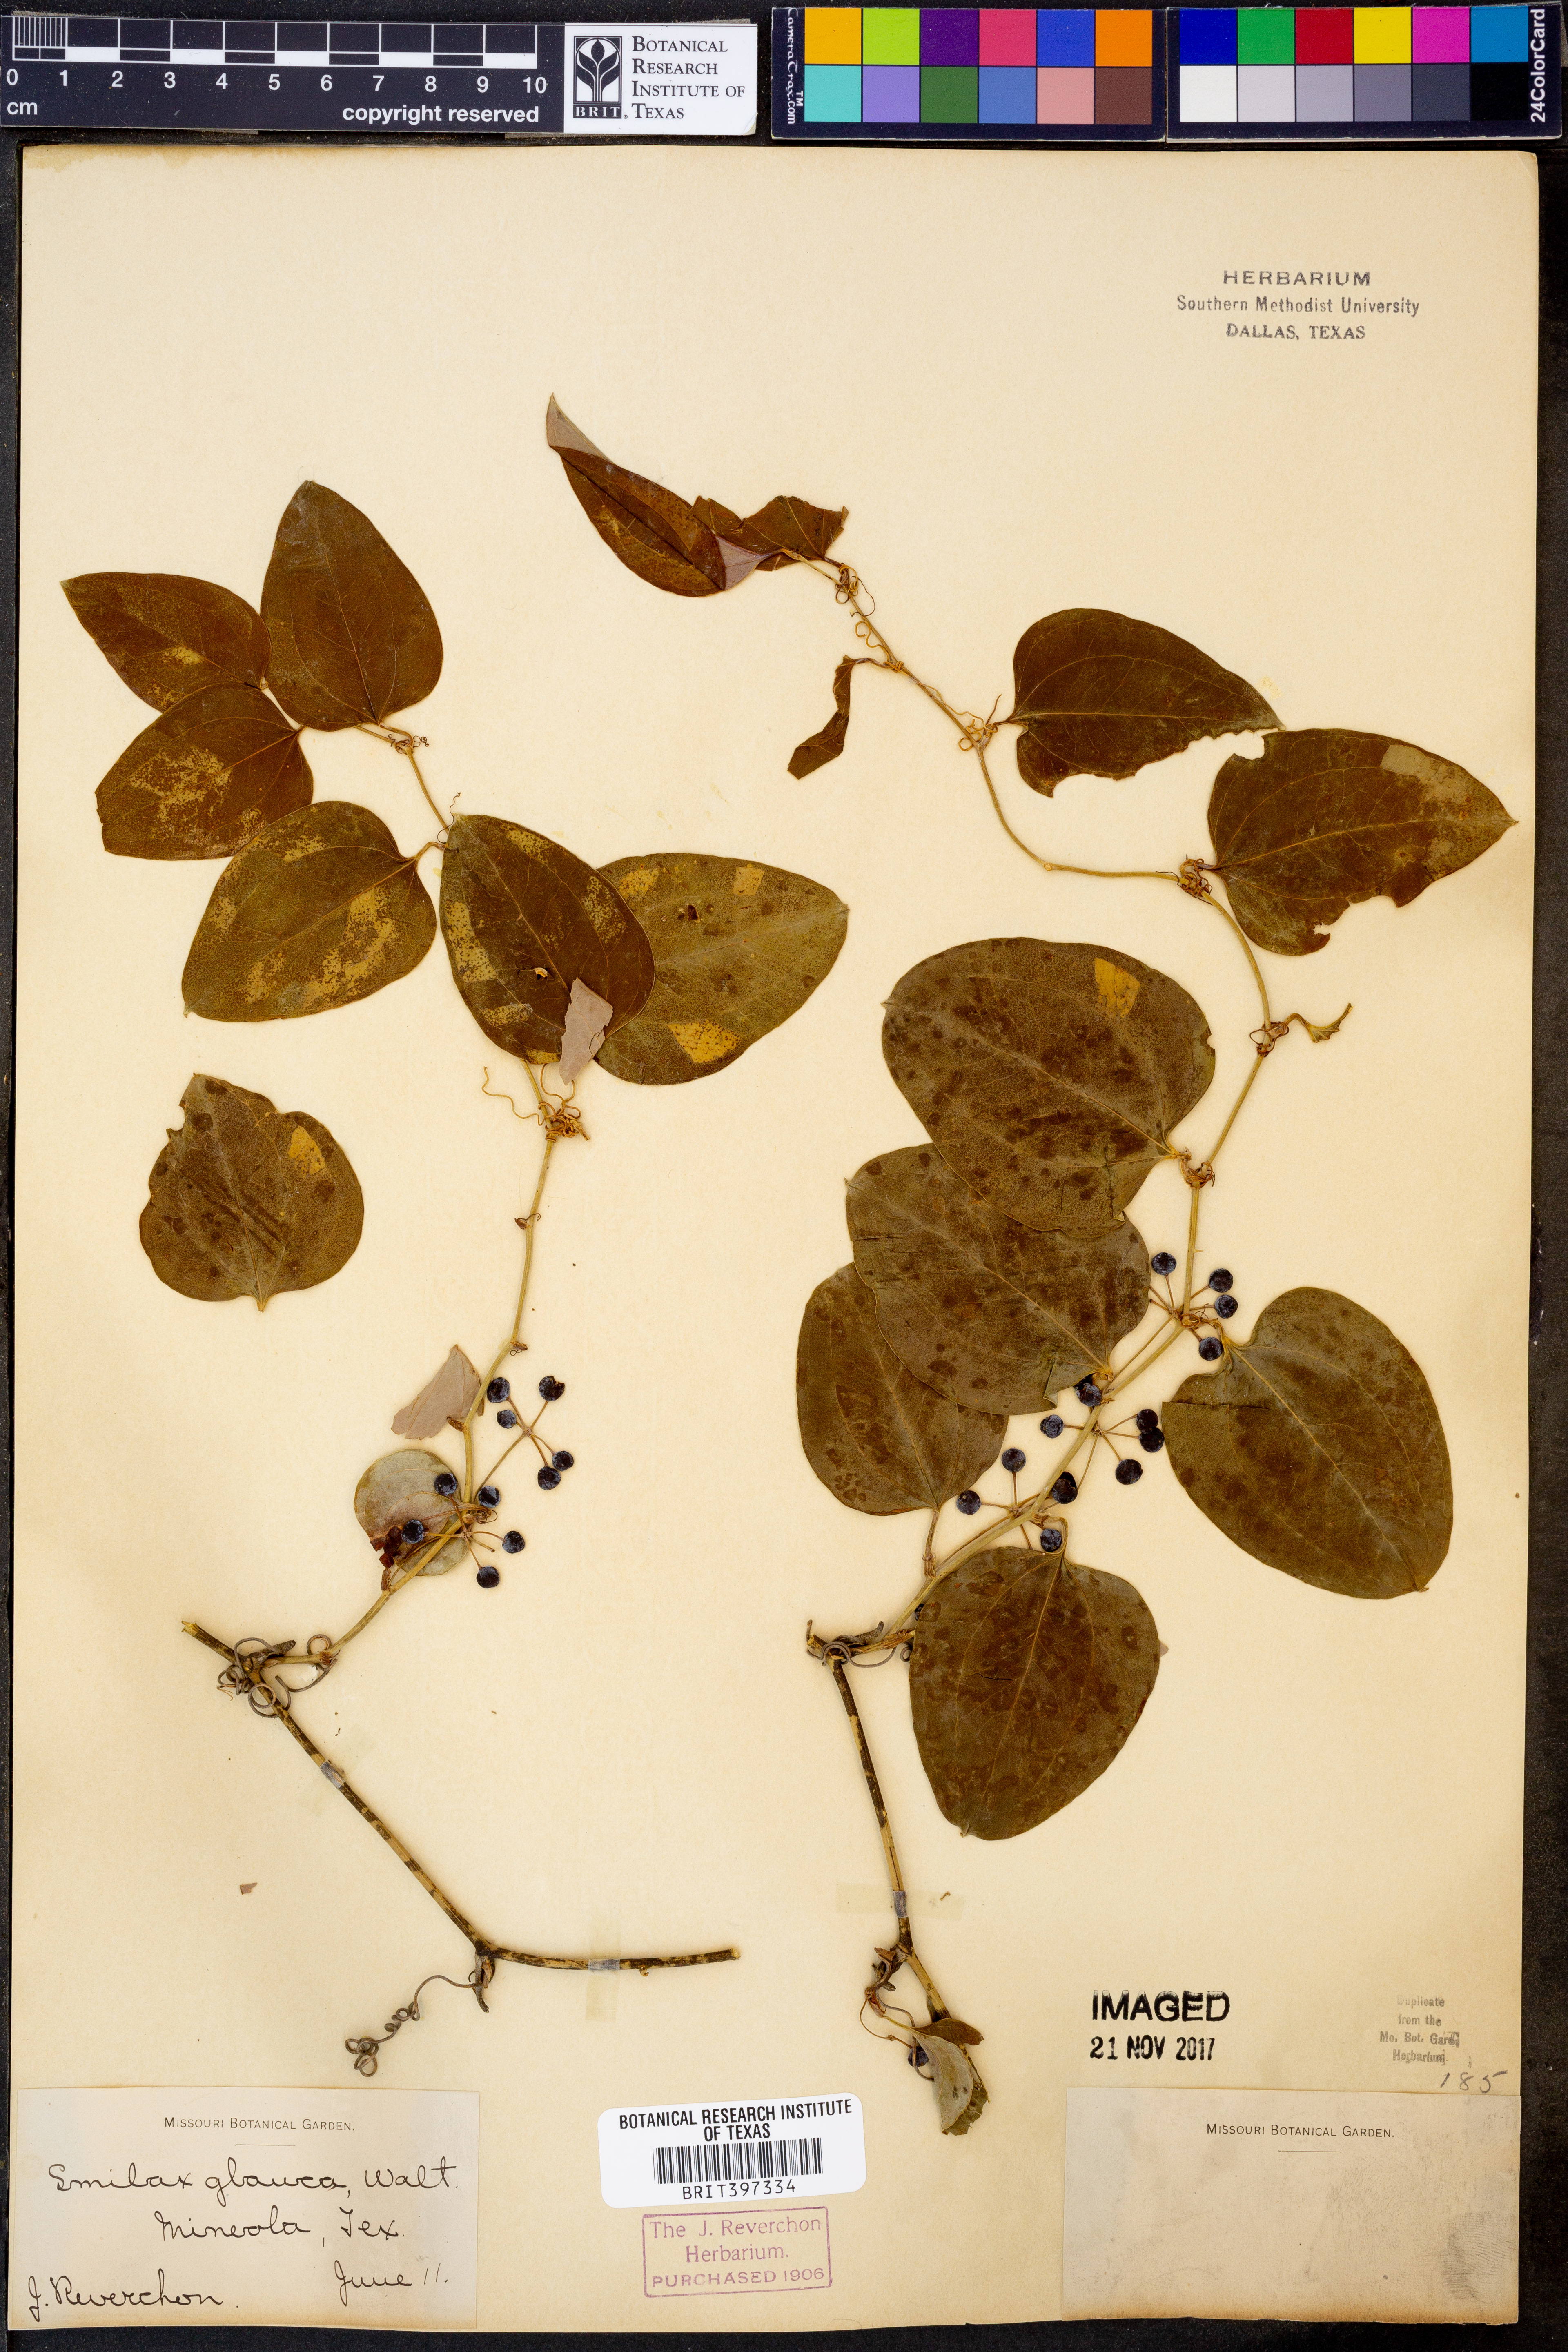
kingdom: Plantae
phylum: Tracheophyta
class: Liliopsida
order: Liliales
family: Smilacaceae
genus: Smilax
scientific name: Smilax glauca
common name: Cat greenbrier
